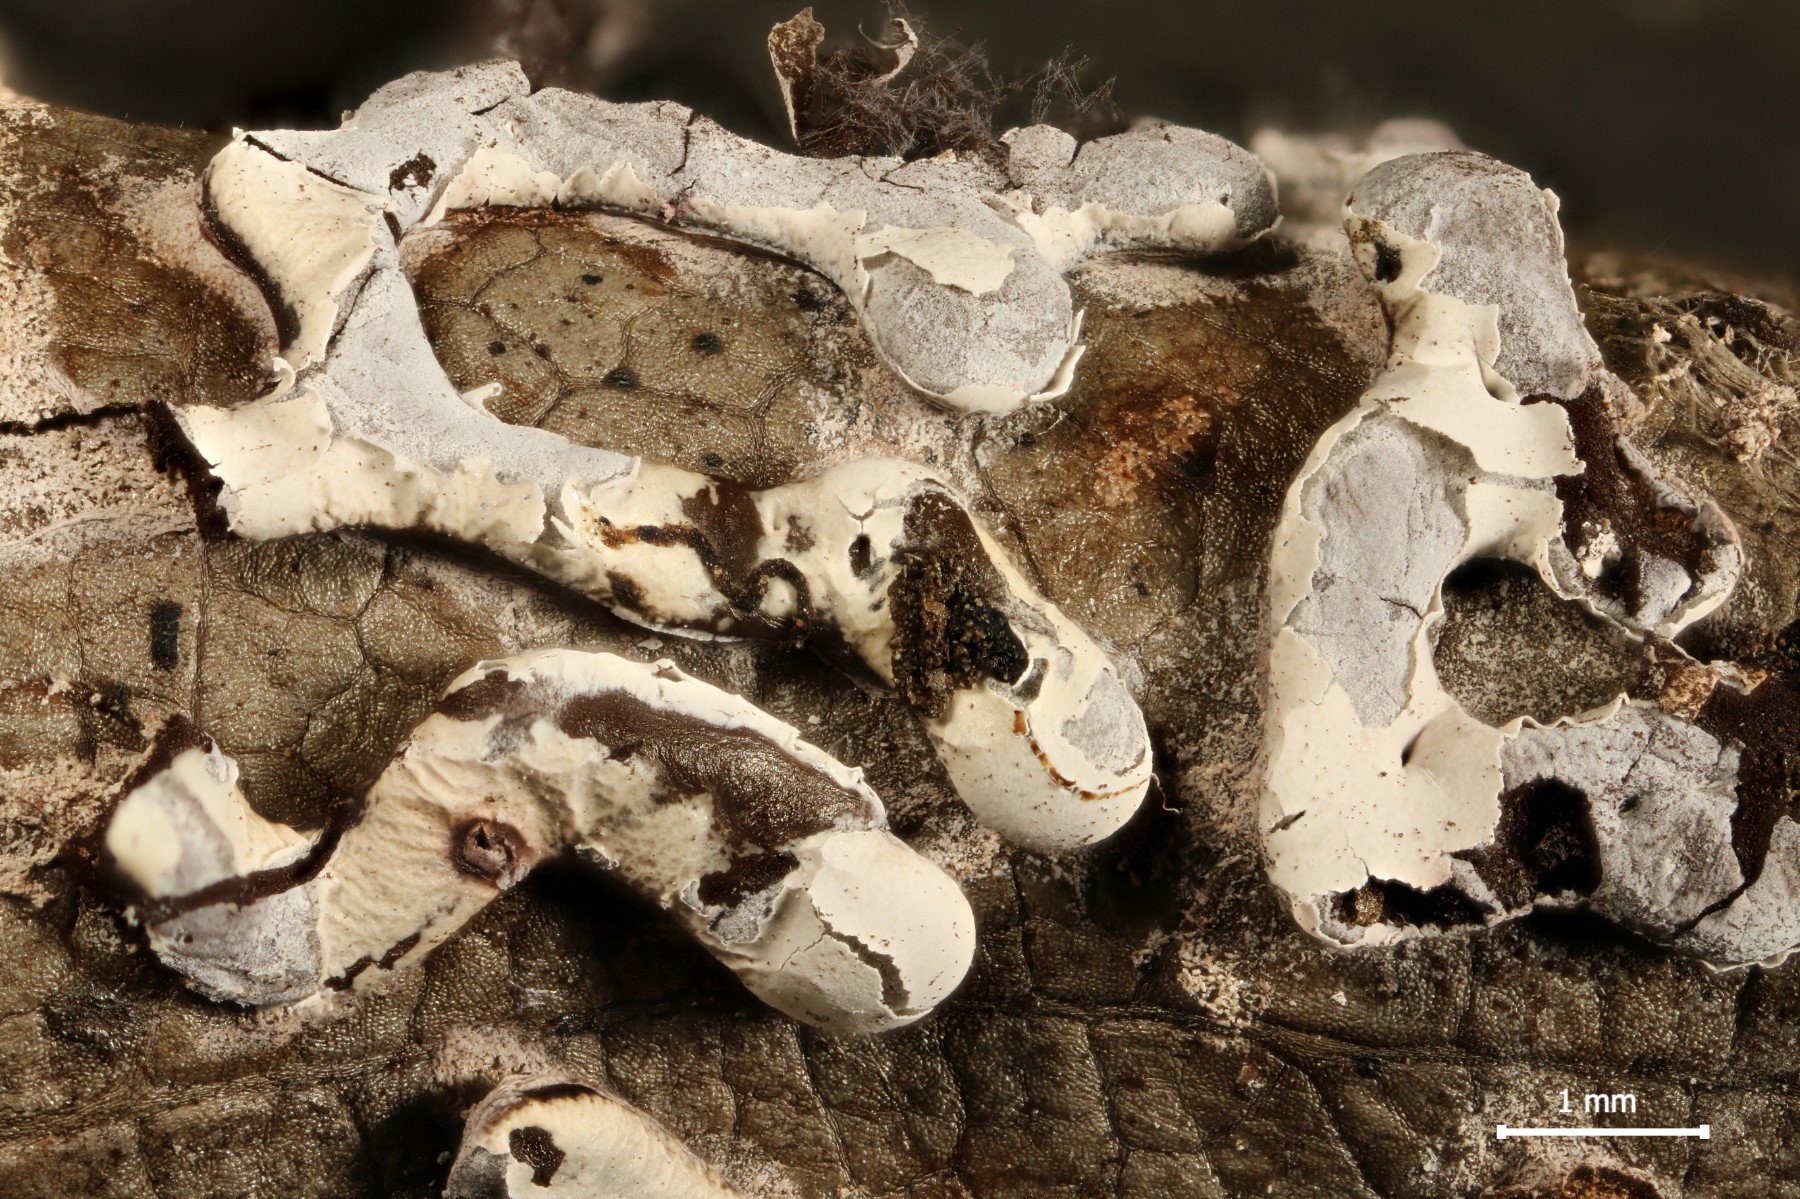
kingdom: Protozoa
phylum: Mycetozoa
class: Myxomycetes
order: Physarales
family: Didymiaceae
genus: Diderma
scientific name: Diderma effusum
